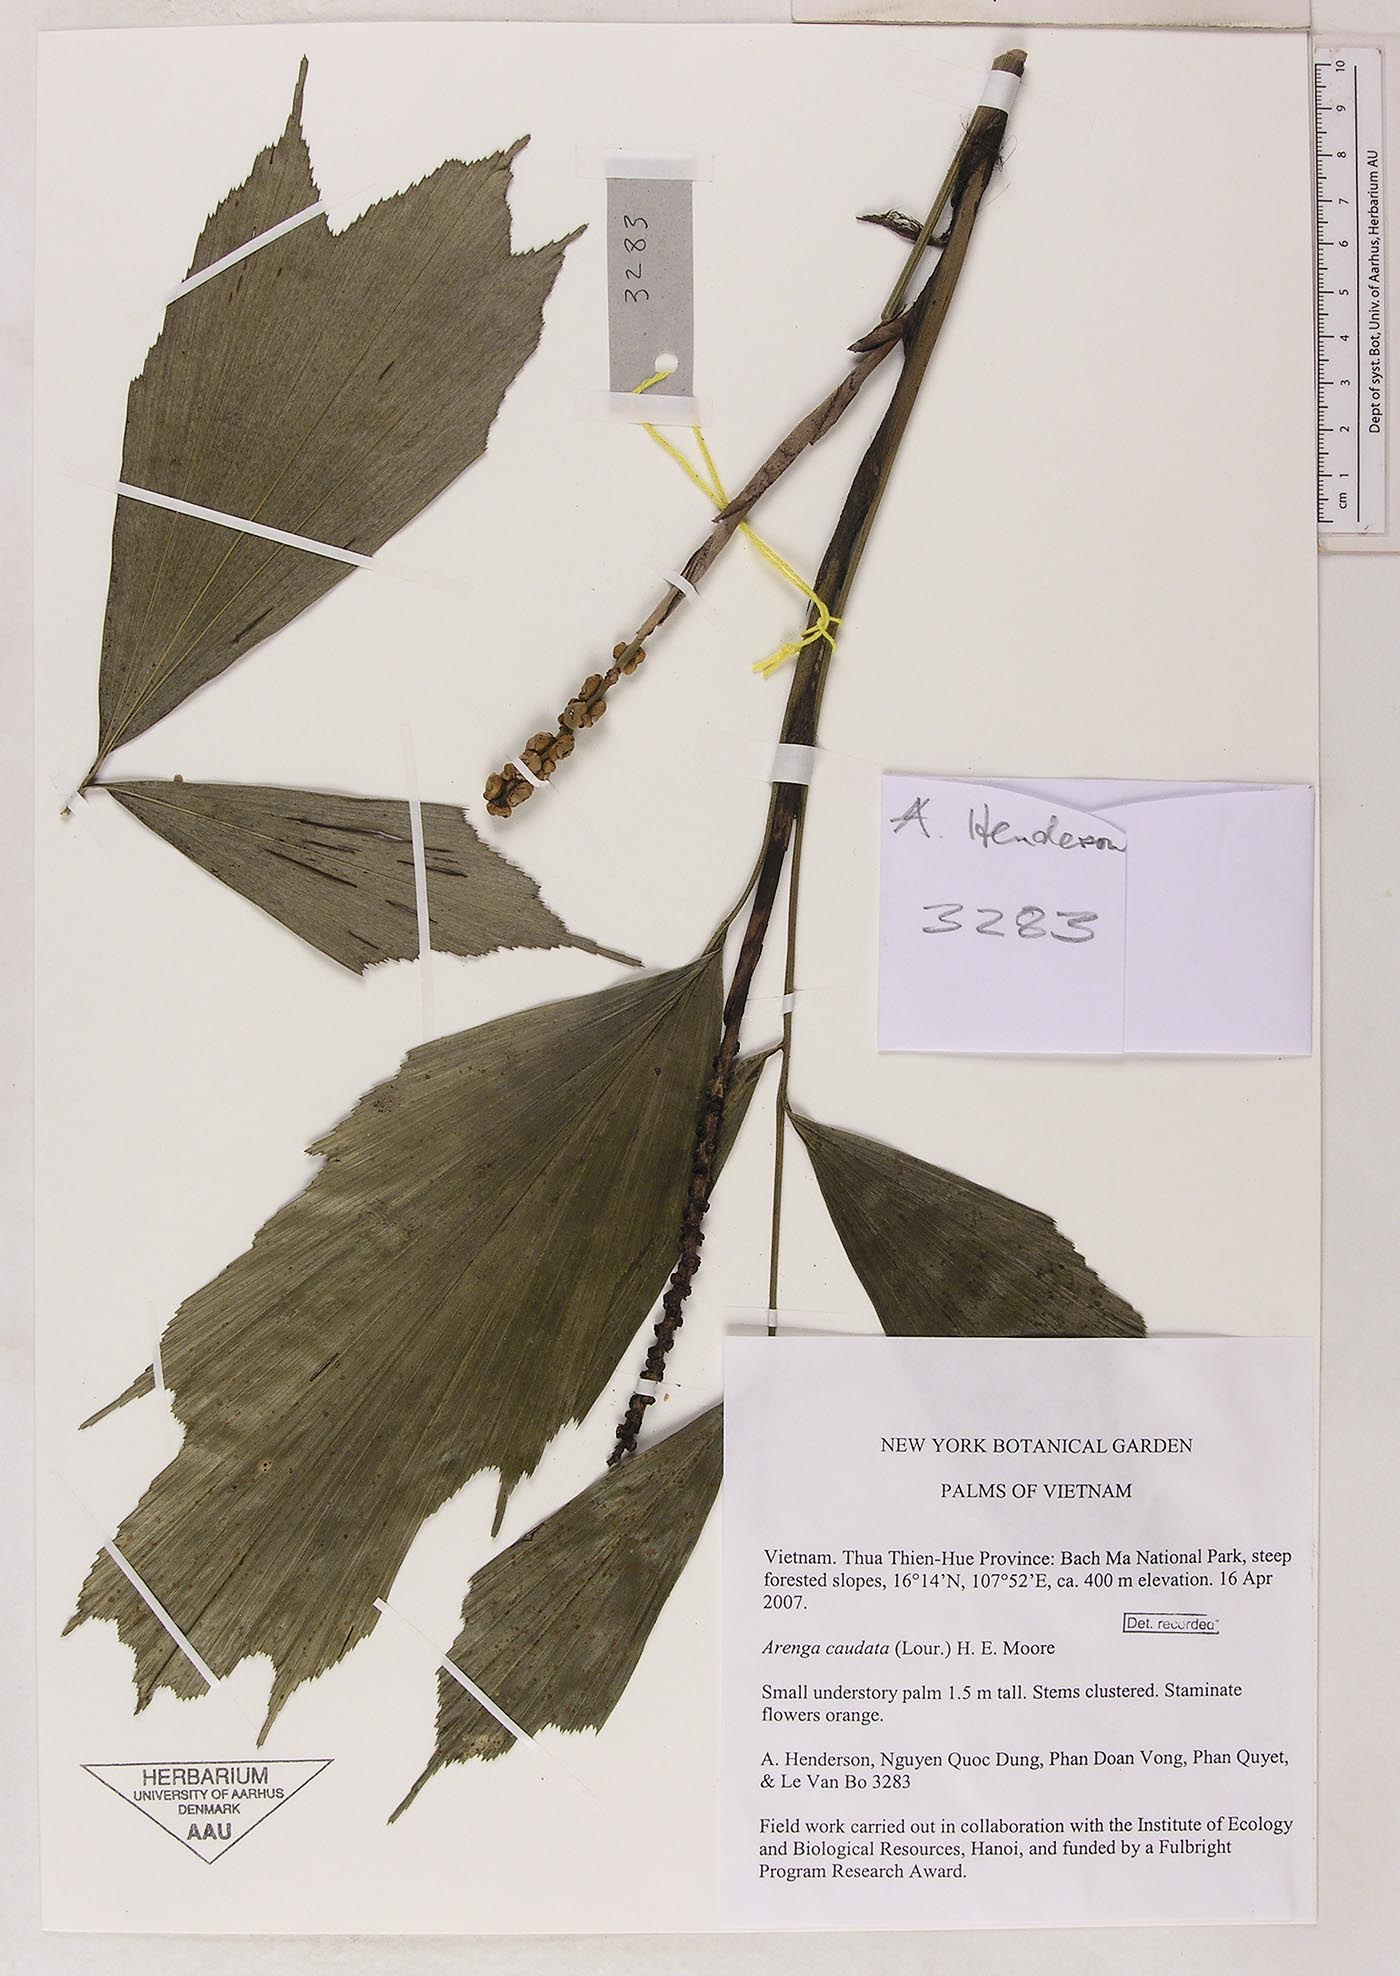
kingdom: Plantae
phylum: Tracheophyta
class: Liliopsida
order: Arecales
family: Arecaceae
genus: Arenga
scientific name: Arenga caudata
